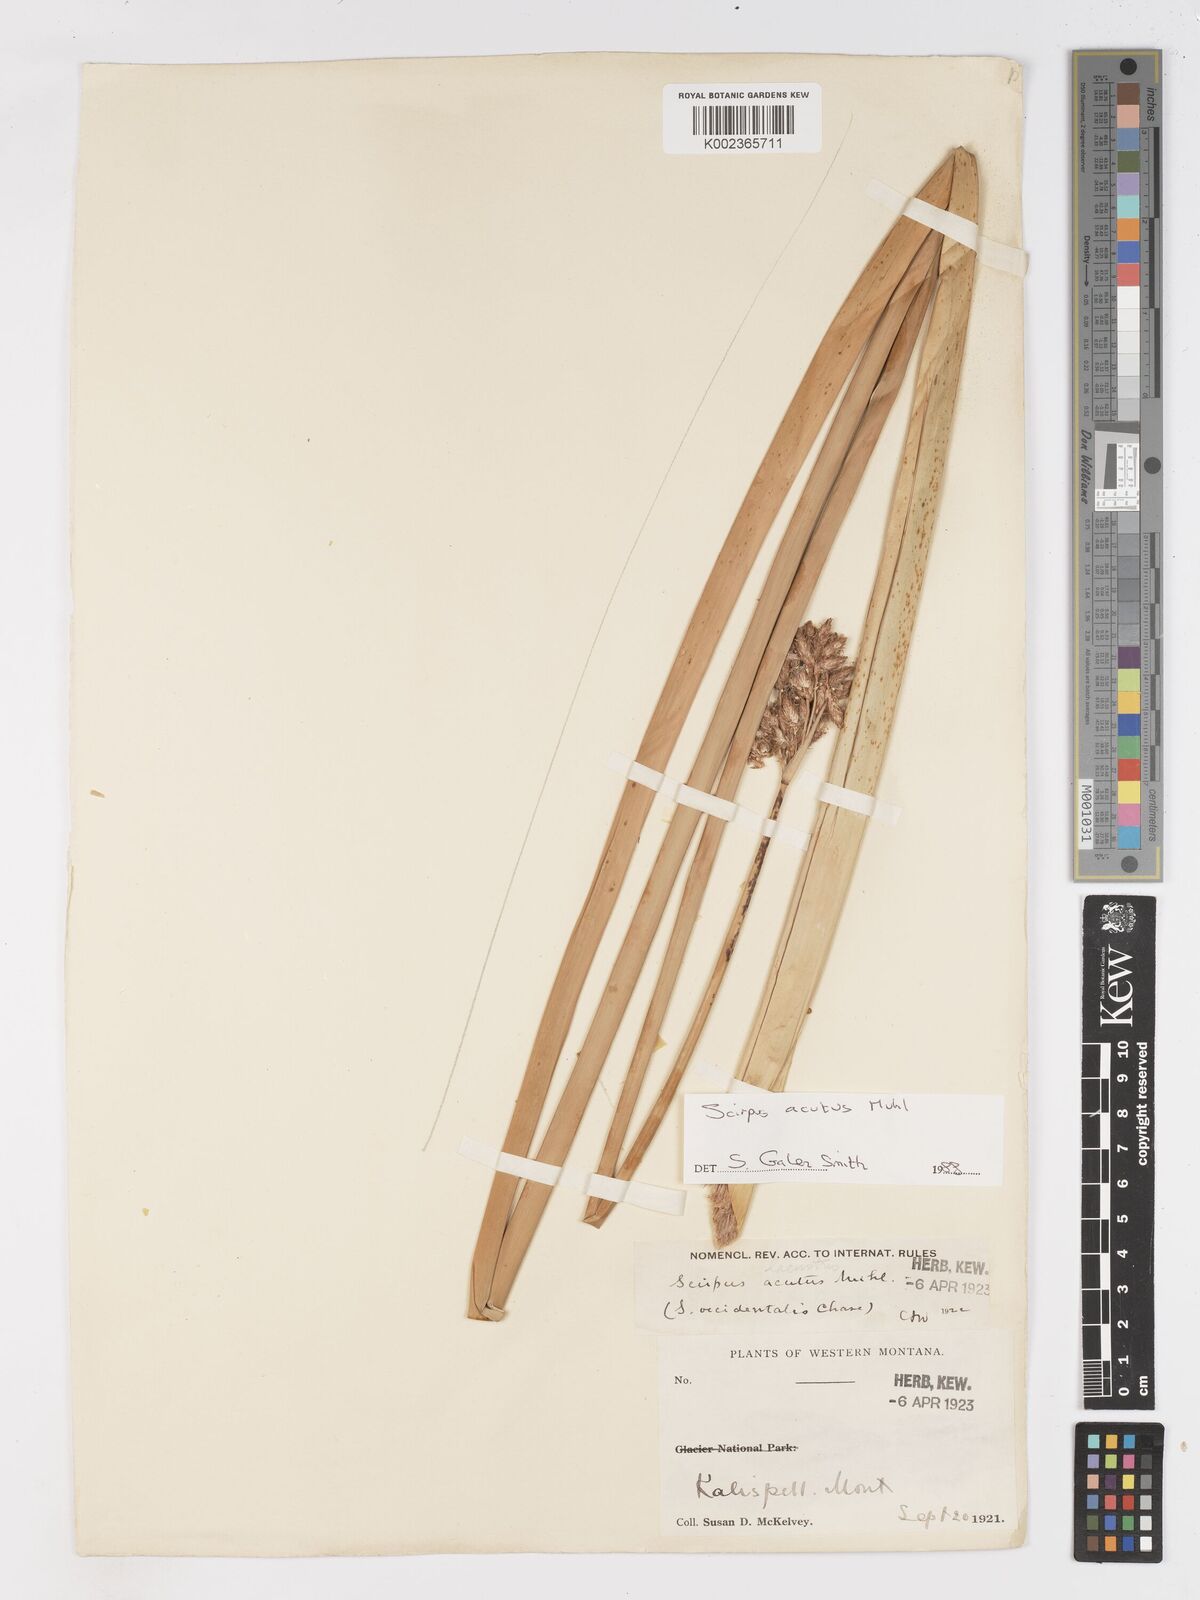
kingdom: Plantae
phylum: Tracheophyta
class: Liliopsida
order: Poales
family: Cyperaceae
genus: Schoenoplectus
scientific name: Schoenoplectus acutus
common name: Hardstem bulrush
